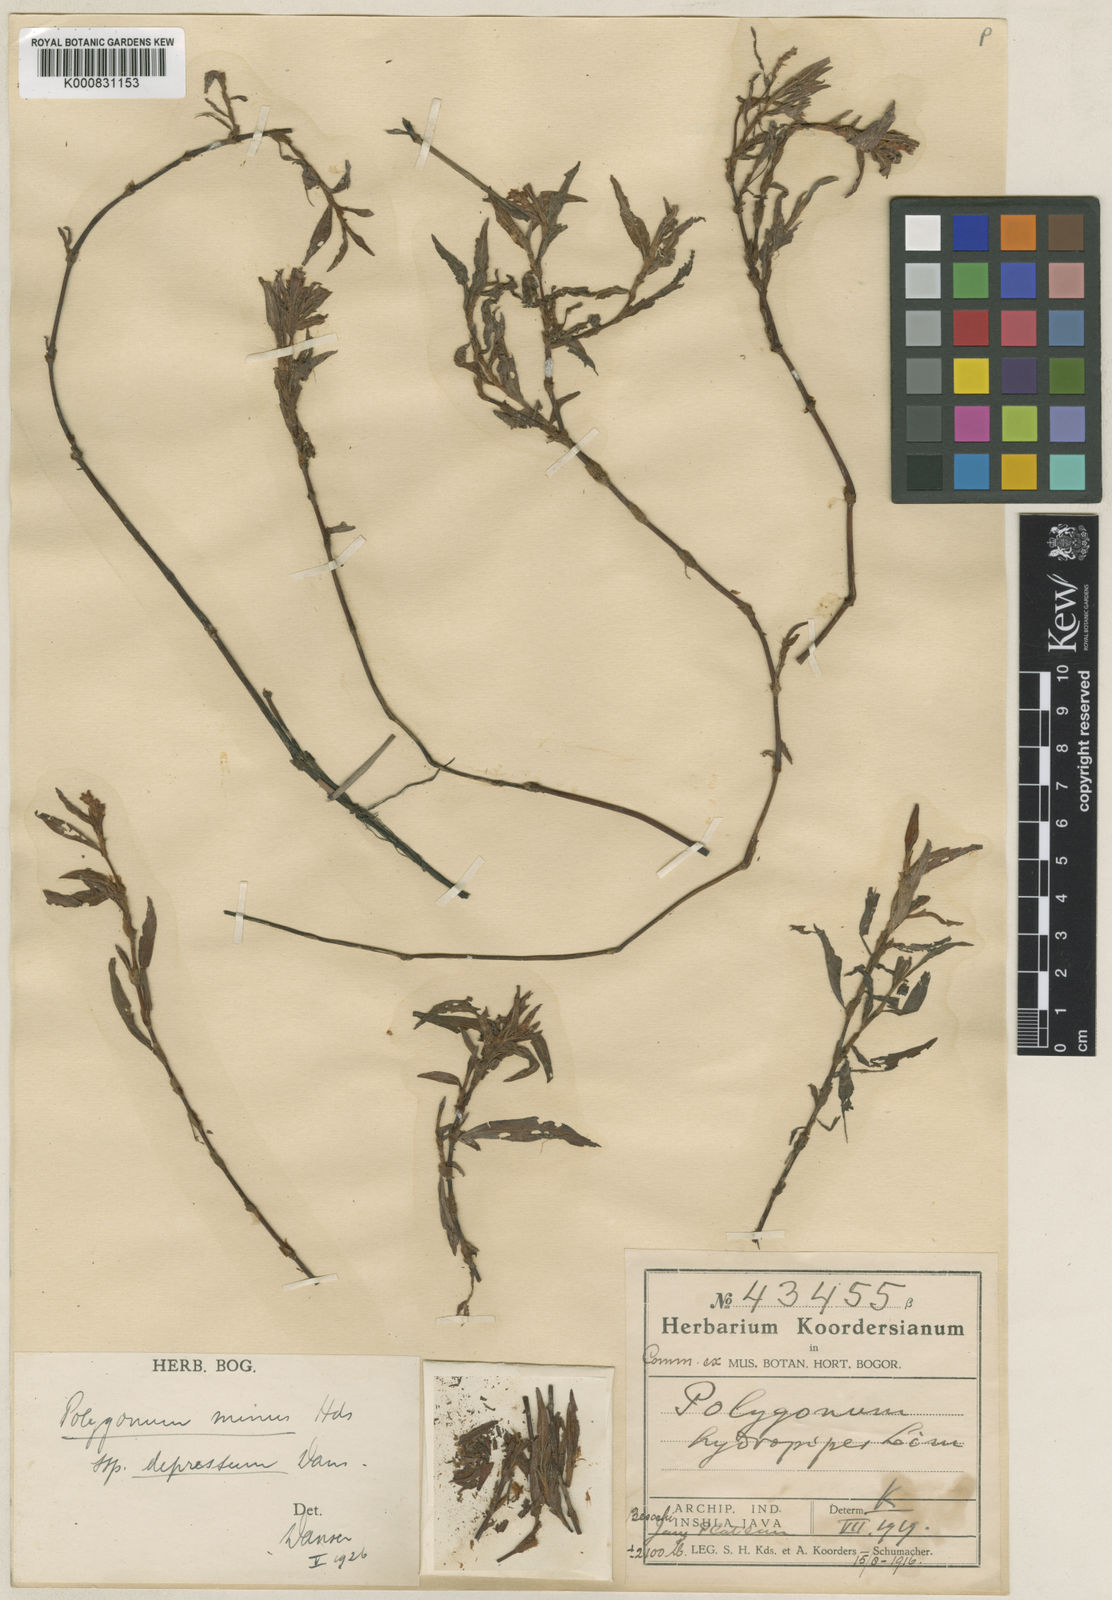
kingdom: Plantae
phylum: Tracheophyta
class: Magnoliopsida
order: Caryophyllales
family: Polygonaceae
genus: Persicaria
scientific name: Persicaria minor
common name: Small water-pepper
